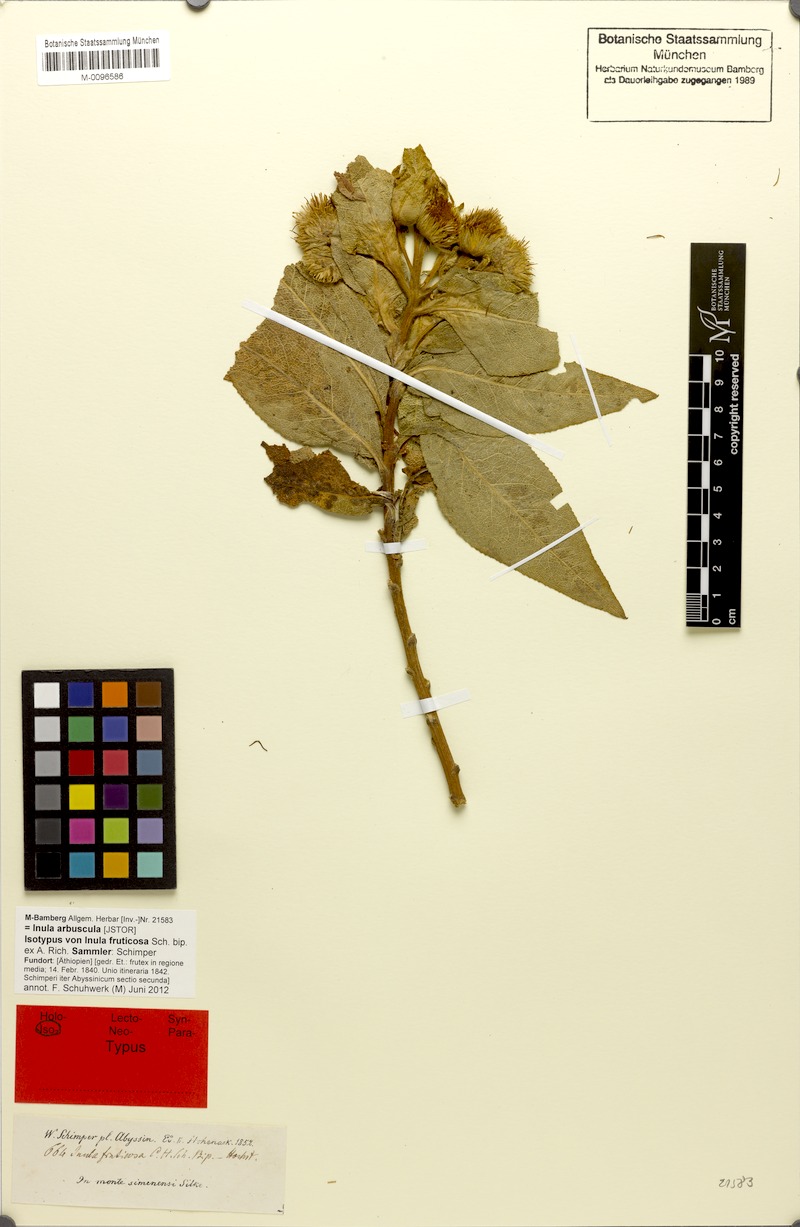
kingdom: Plantae
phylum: Tracheophyta
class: Magnoliopsida
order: Asterales
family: Asteraceae
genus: Inula
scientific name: Inula arbuscula
